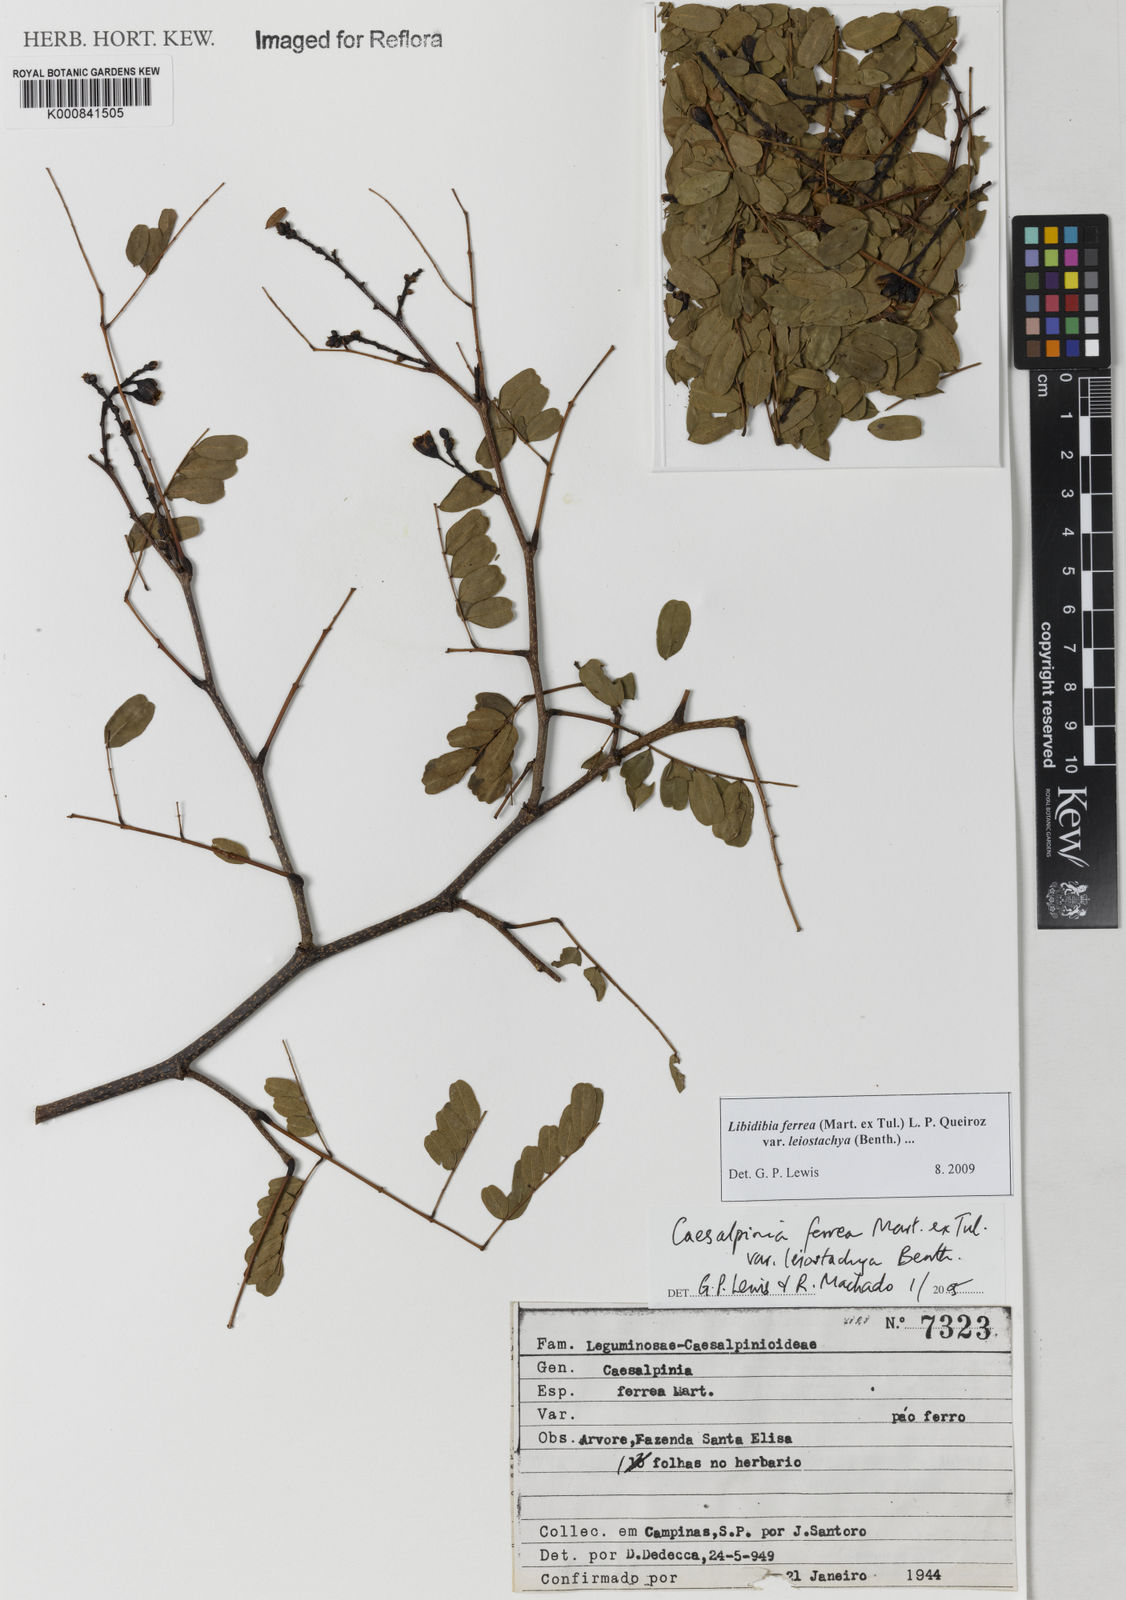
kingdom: Plantae
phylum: Tracheophyta
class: Magnoliopsida
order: Fabales
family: Fabaceae
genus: Libidibia
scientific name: Libidibia ferrea
